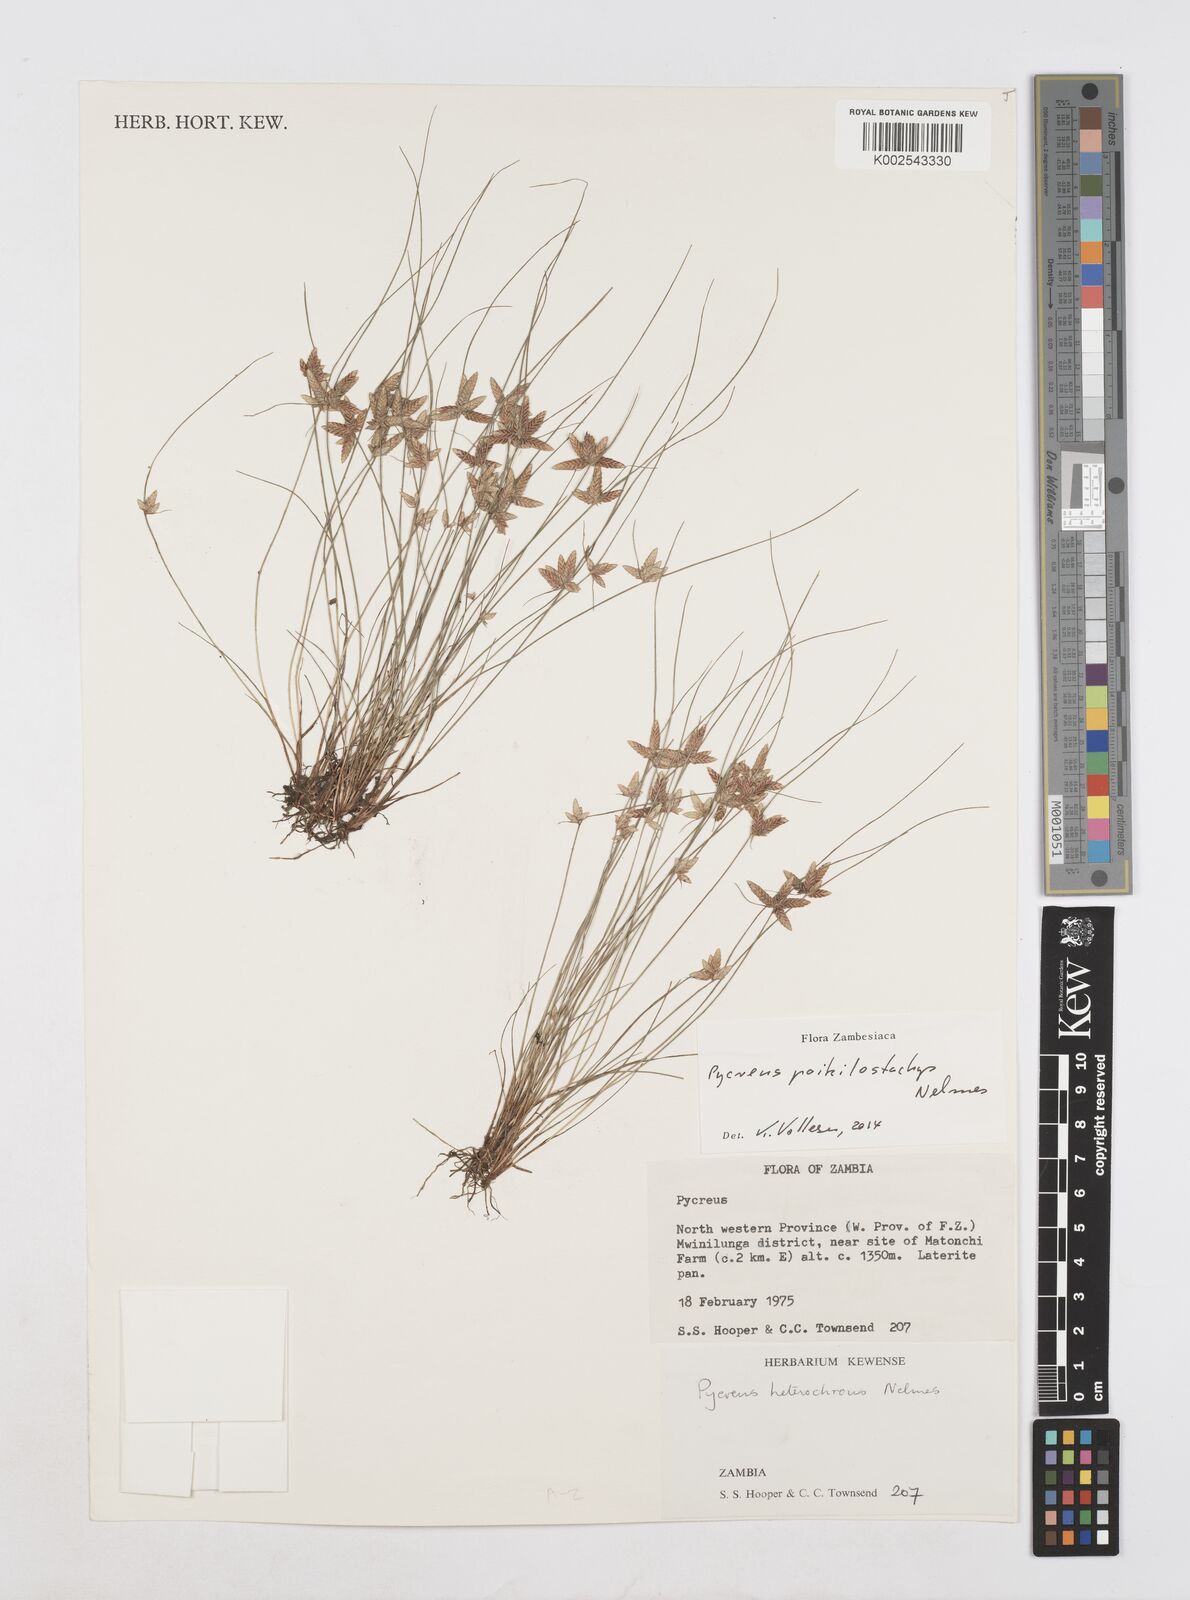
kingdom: Plantae
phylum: Tracheophyta
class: Liliopsida
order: Poales
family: Cyperaceae
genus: Cyperus
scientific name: Cyperus poikilostachys
